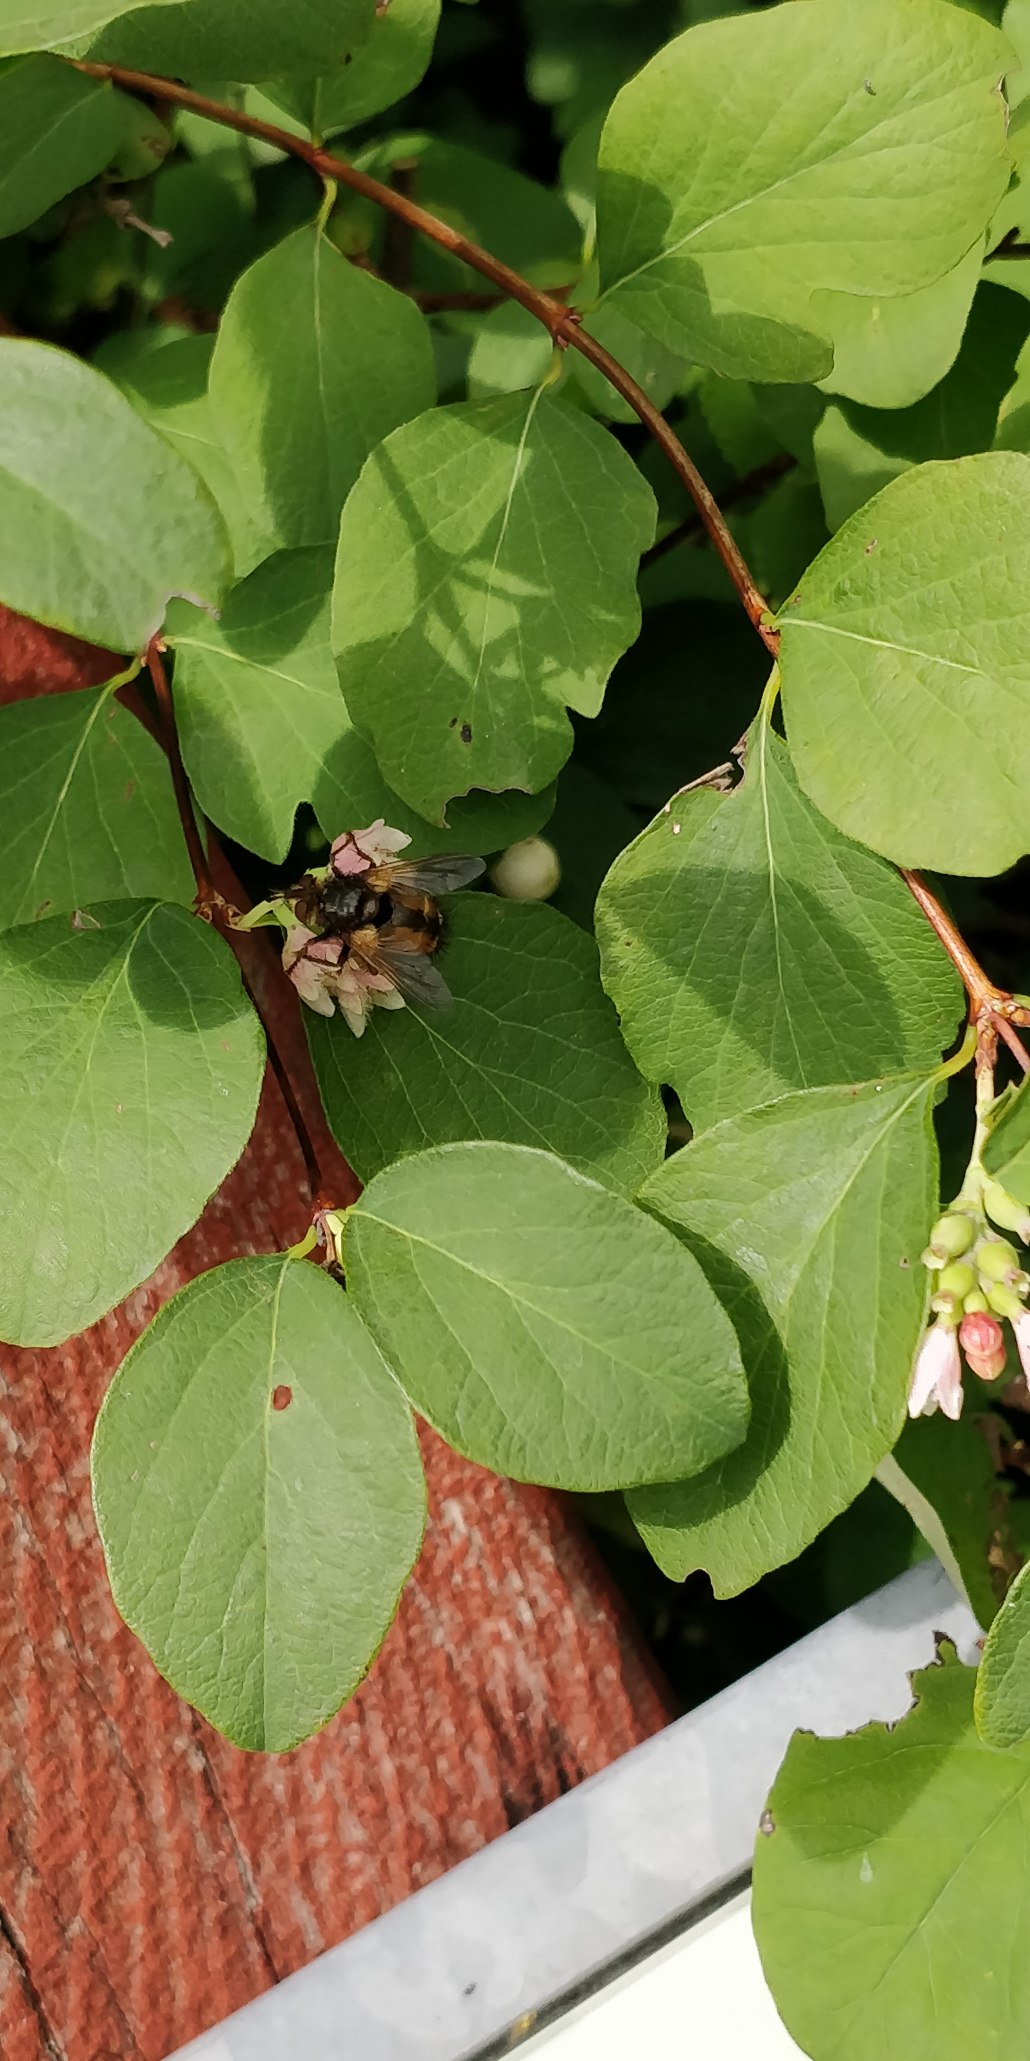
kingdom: Animalia
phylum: Arthropoda
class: Insecta
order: Diptera
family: Tachinidae
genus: Tachina
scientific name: Tachina fera
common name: Mellemfluen oskar
